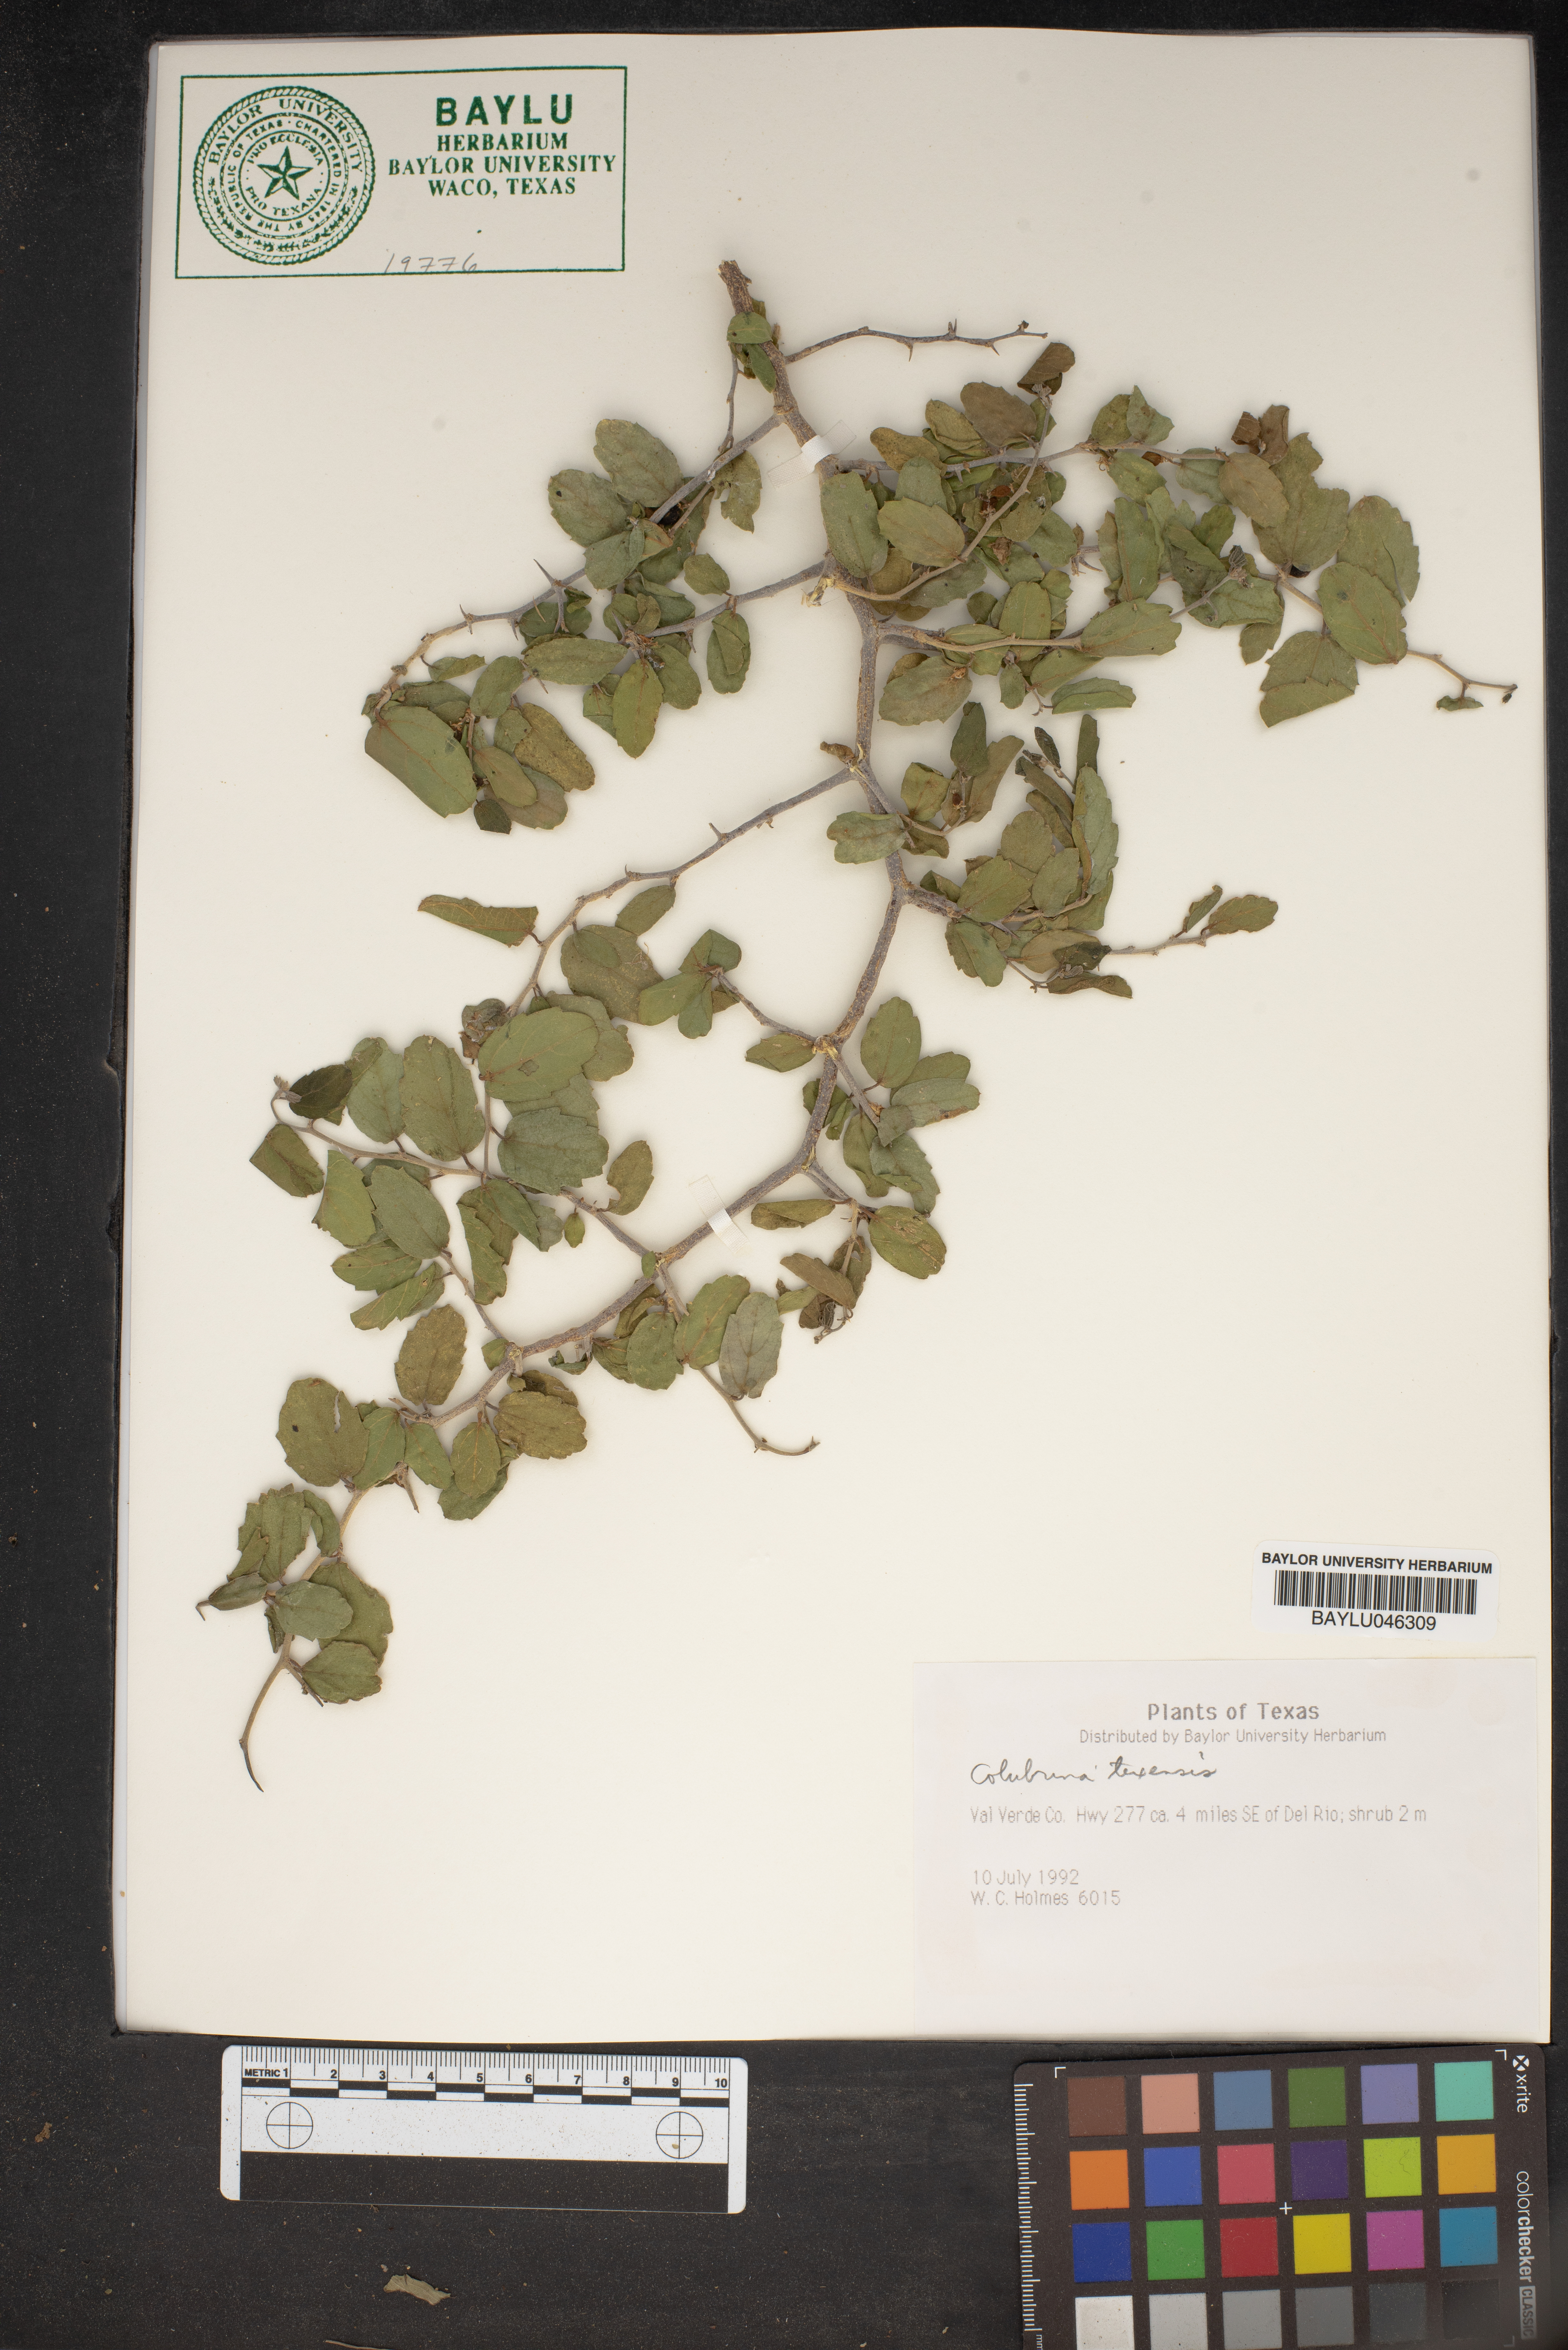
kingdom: Plantae
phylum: Tracheophyta
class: Magnoliopsida
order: Rosales
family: Rhamnaceae
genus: Colubrina
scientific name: Colubrina texensis
